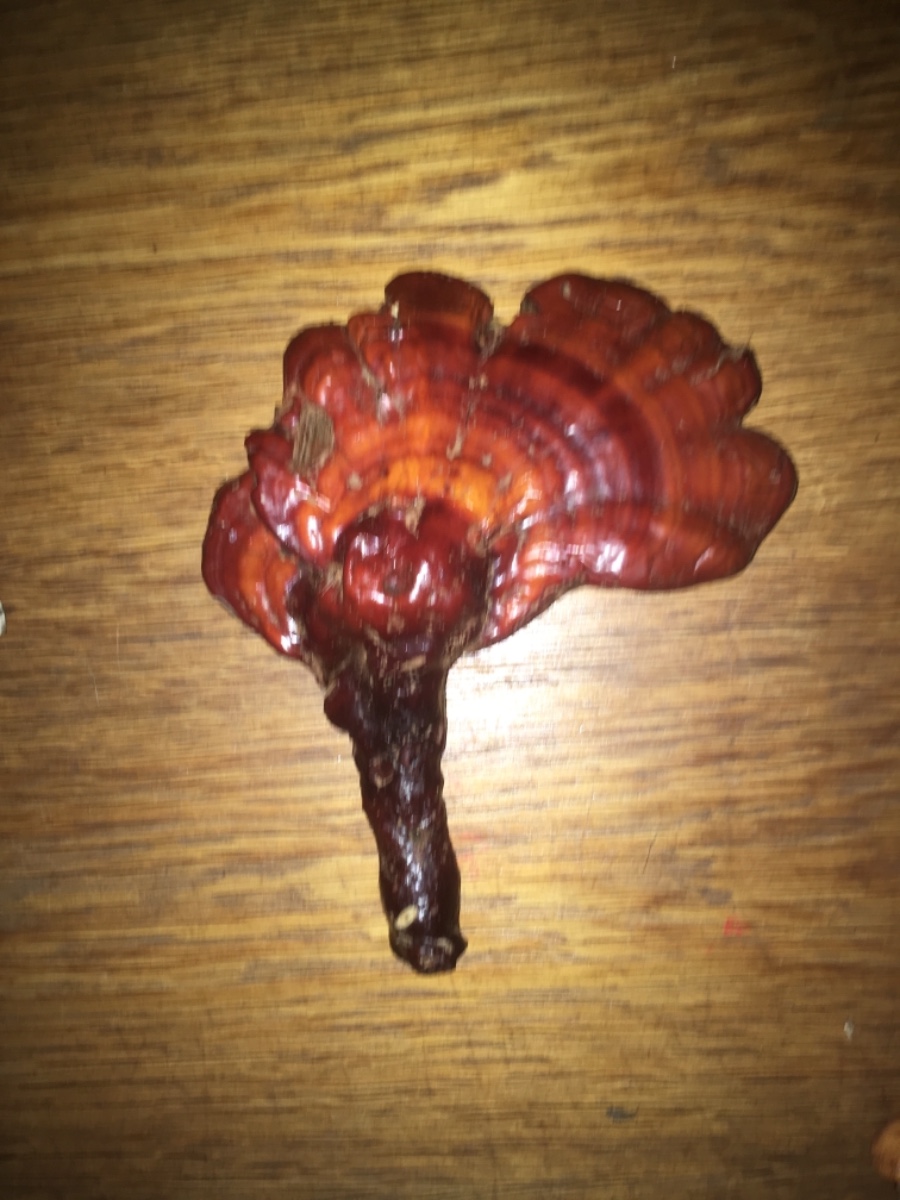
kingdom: Fungi
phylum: Basidiomycota
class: Agaricomycetes
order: Polyporales
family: Polyporaceae
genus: Ganoderma
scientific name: Ganoderma lucidum
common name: skinnende lakporesvamp
